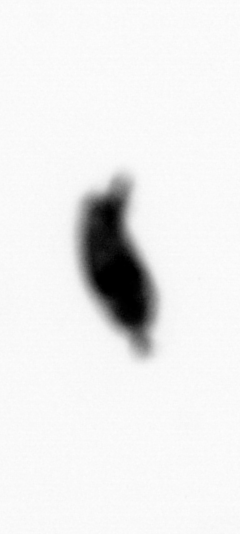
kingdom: Animalia
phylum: Arthropoda
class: Maxillopoda
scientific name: Maxillopoda
